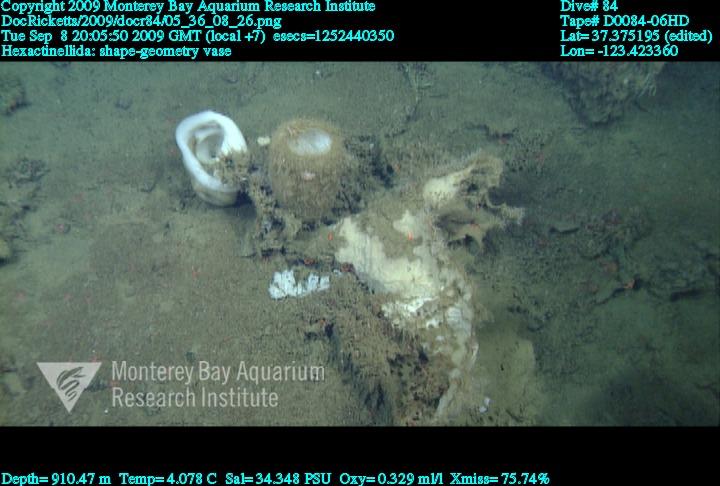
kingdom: Animalia
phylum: Porifera
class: Hexactinellida
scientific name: Hexactinellida
